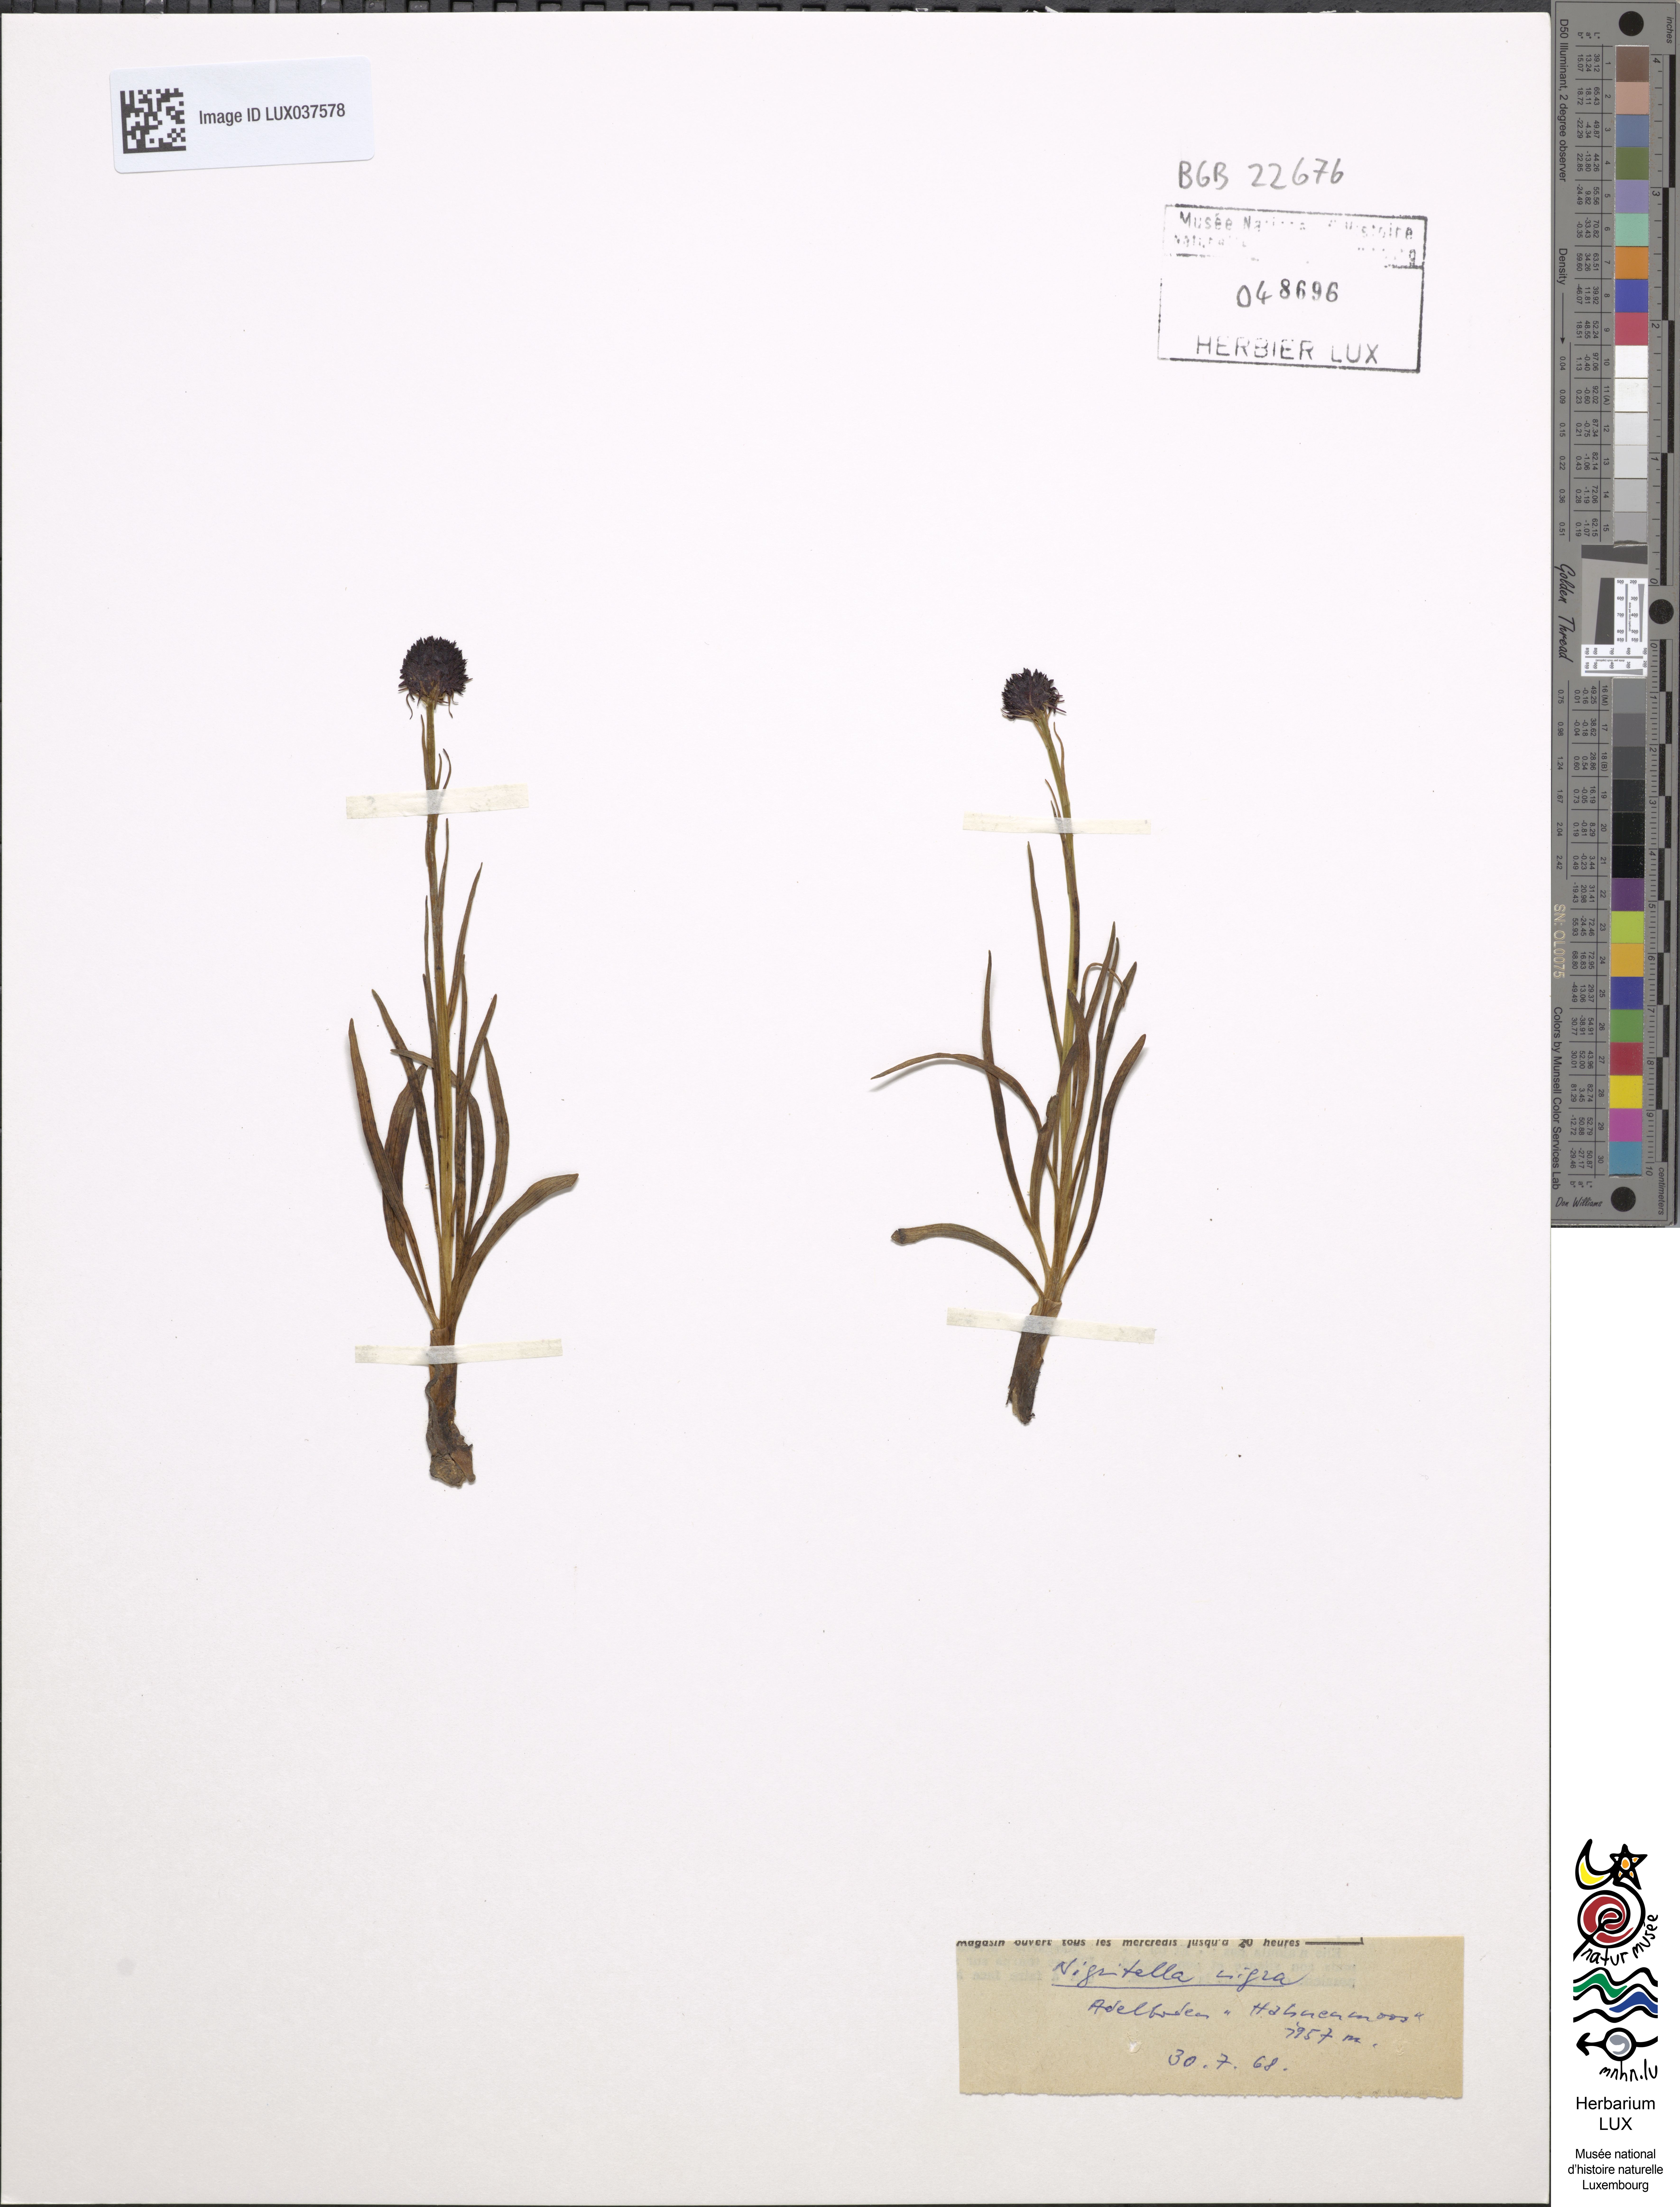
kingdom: Plantae
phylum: Tracheophyta
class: Liliopsida
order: Asparagales
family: Orchidaceae
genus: Gymnadenia
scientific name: Gymnadenia nigra
